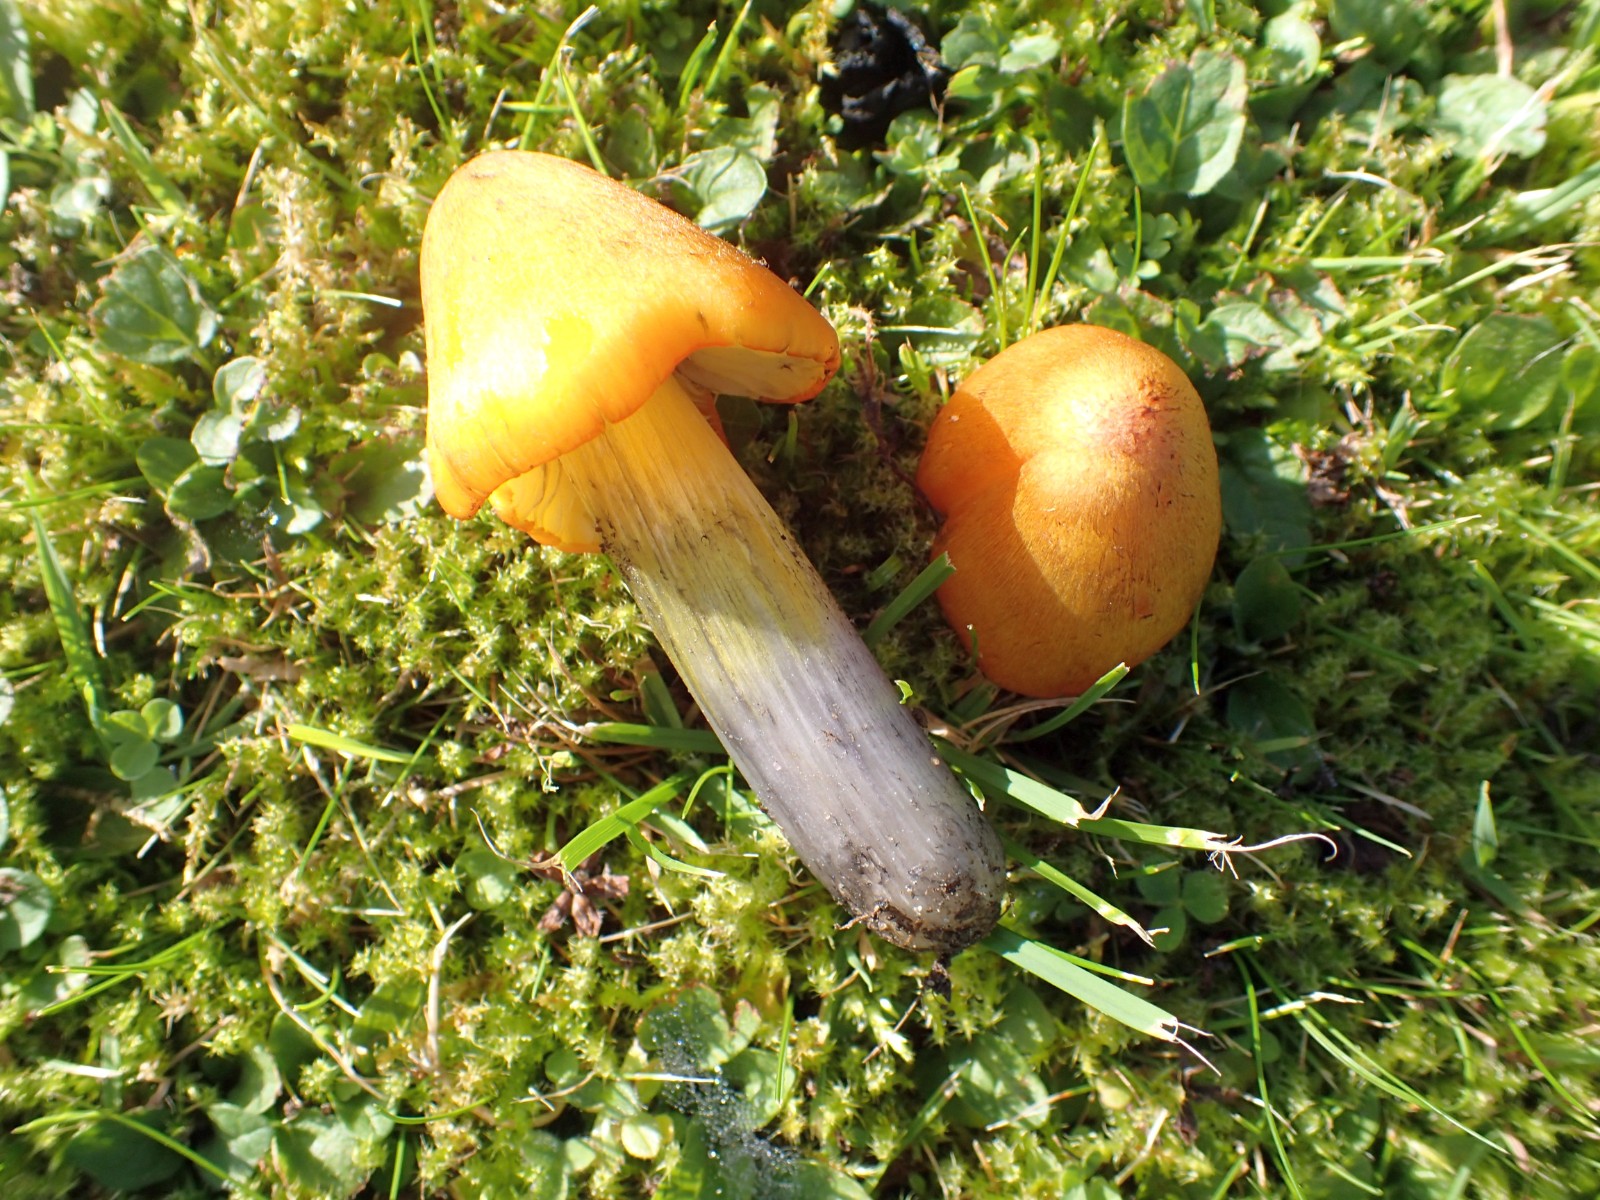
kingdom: Fungi
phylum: Basidiomycota
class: Agaricomycetes
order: Agaricales
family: Hygrophoraceae
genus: Hygrocybe
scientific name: Hygrocybe conica
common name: kegle-vokshat
